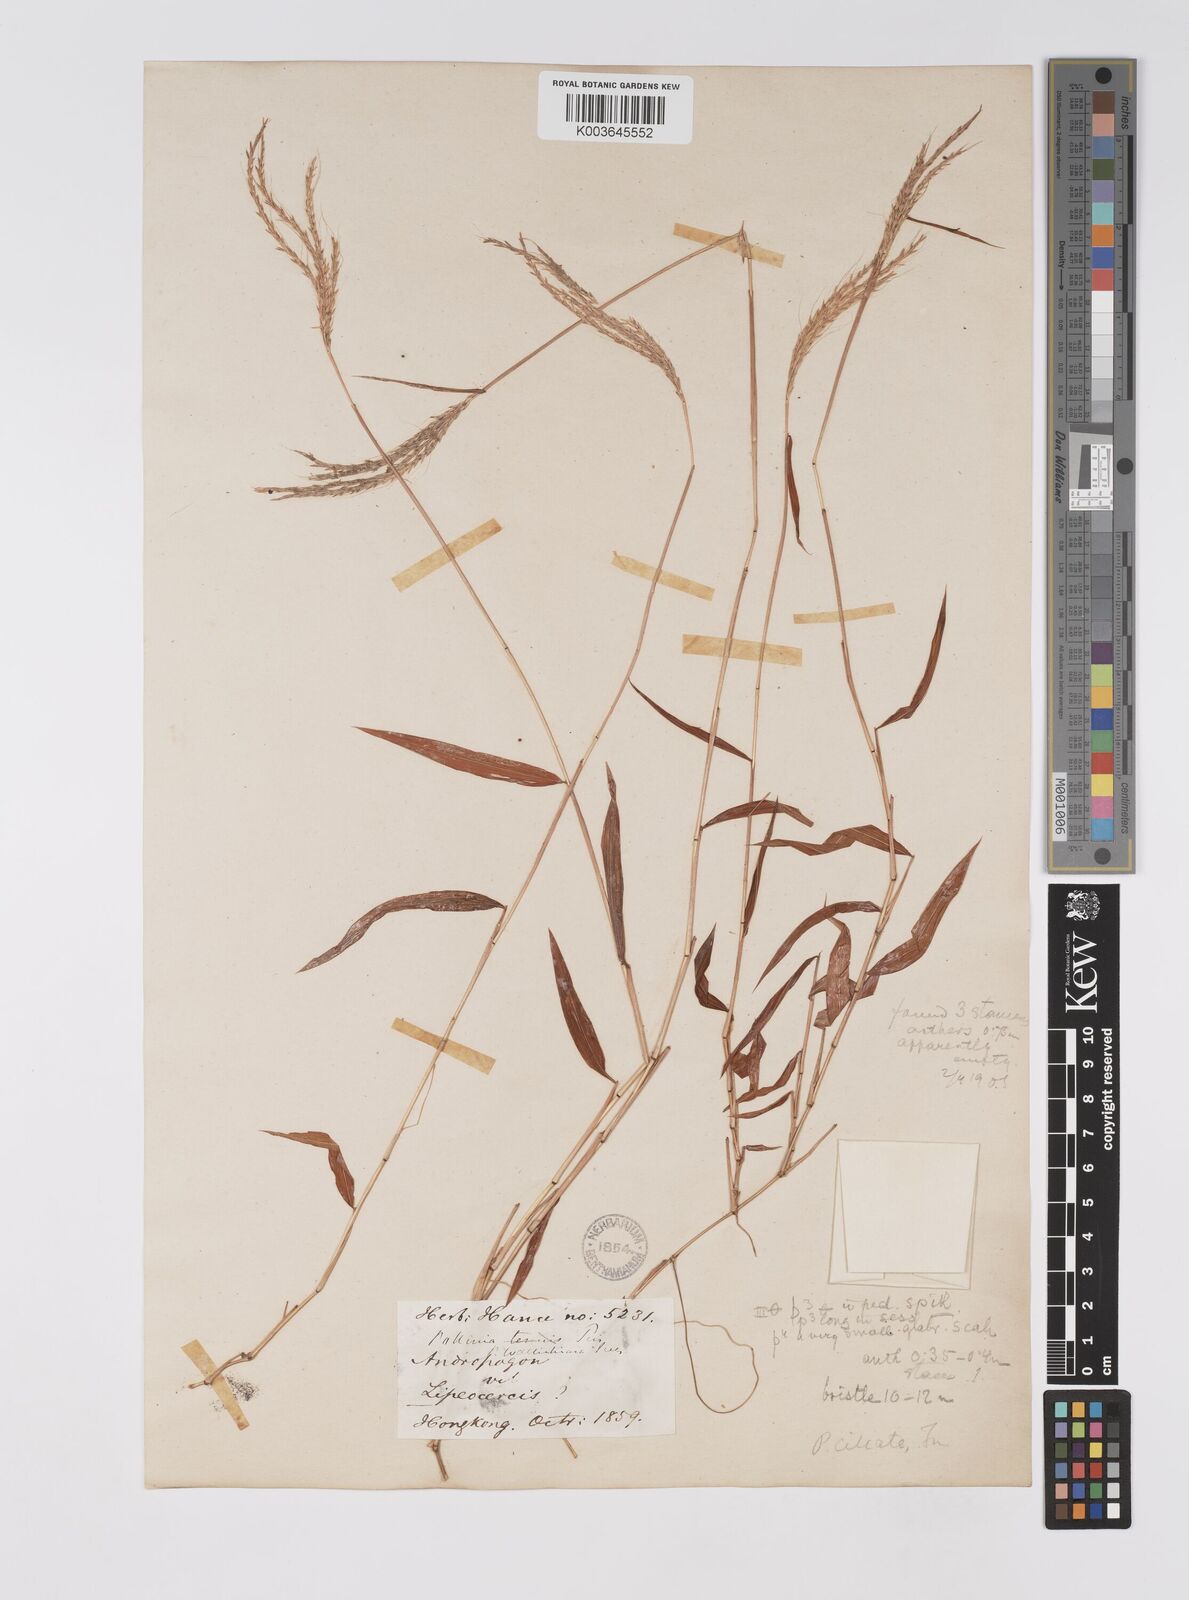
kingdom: Plantae
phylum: Tracheophyta
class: Liliopsida
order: Poales
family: Poaceae
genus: Microstegium
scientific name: Microstegium fasciculatum
